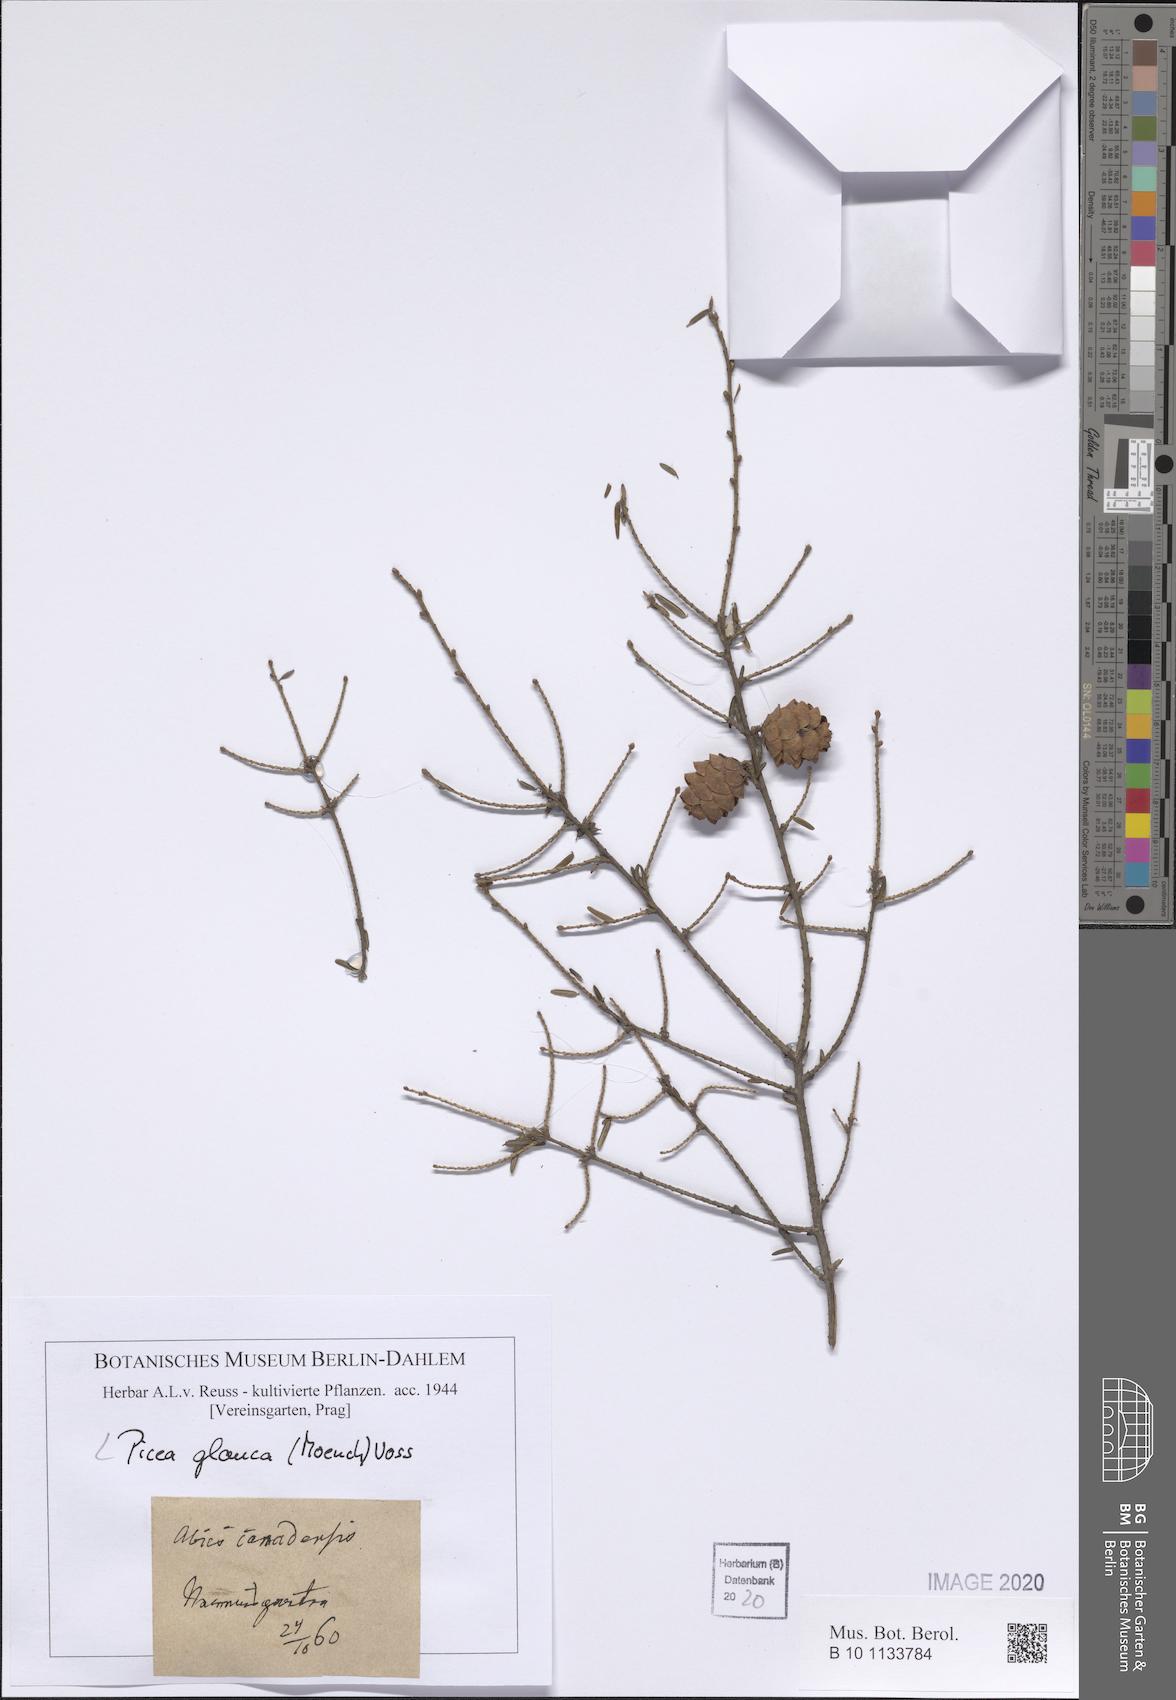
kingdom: Plantae
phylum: Tracheophyta
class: Pinopsida
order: Pinales
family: Pinaceae
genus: Picea
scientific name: Picea glauca
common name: White spruce
